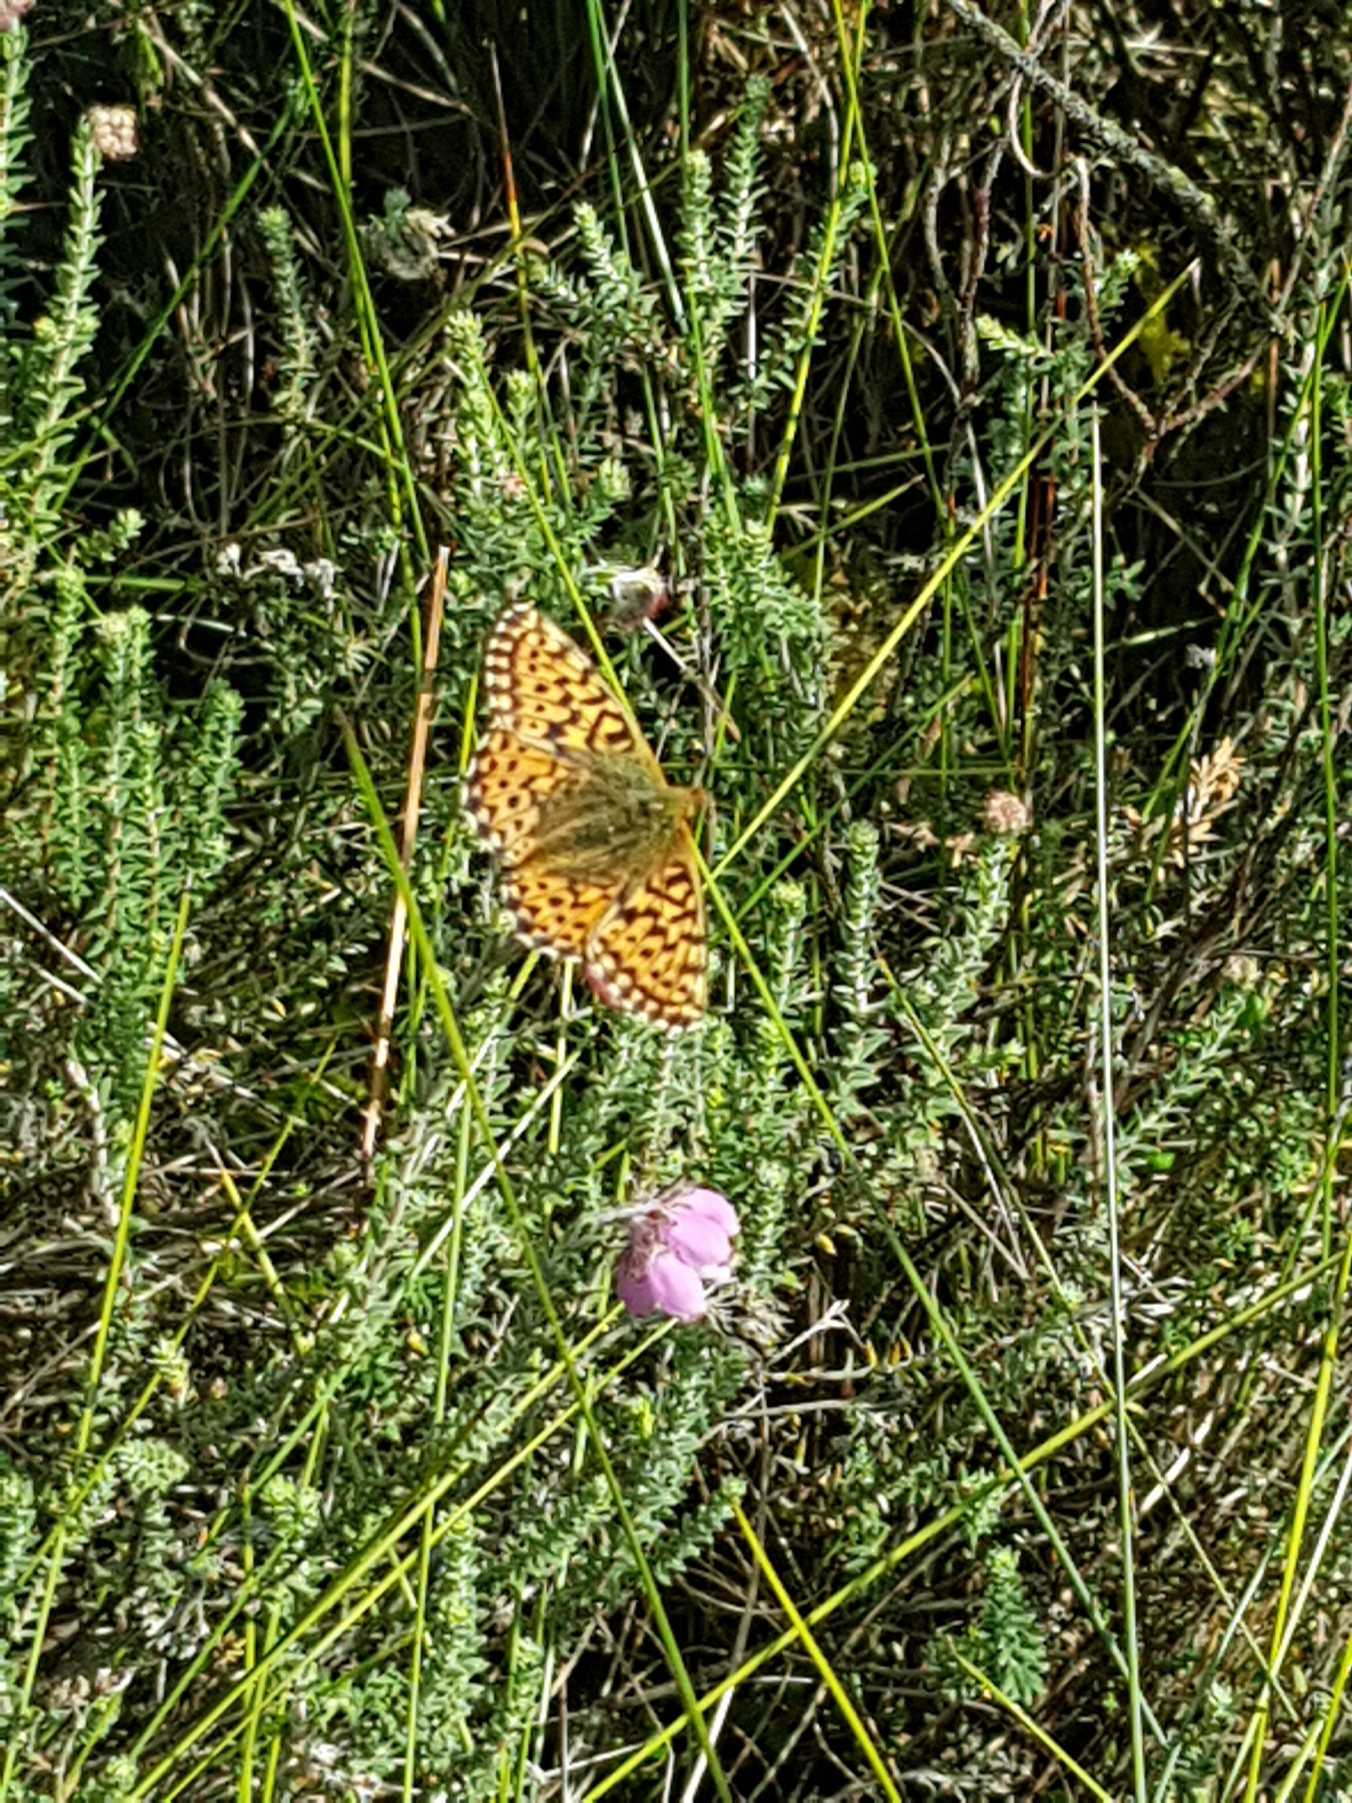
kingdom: Animalia
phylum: Arthropoda
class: Insecta
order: Lepidoptera
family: Nymphalidae
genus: Boloria
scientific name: Boloria aquilonaris
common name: Moseperlemorsommerfugl
